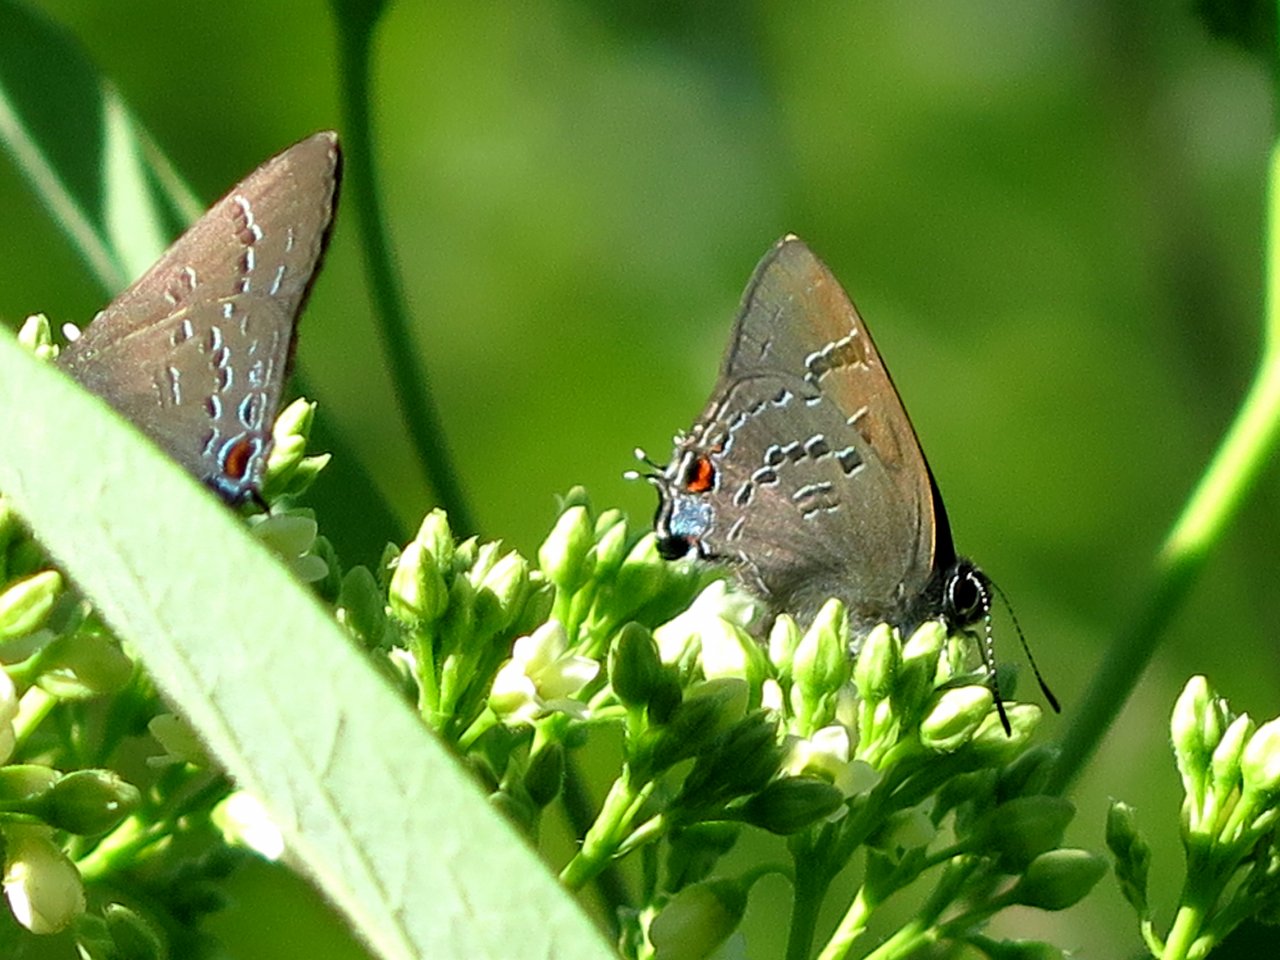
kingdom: Animalia
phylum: Arthropoda
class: Insecta
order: Lepidoptera
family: Lycaenidae
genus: Satyrium
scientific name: Satyrium calanus
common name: Banded Hairstreak
